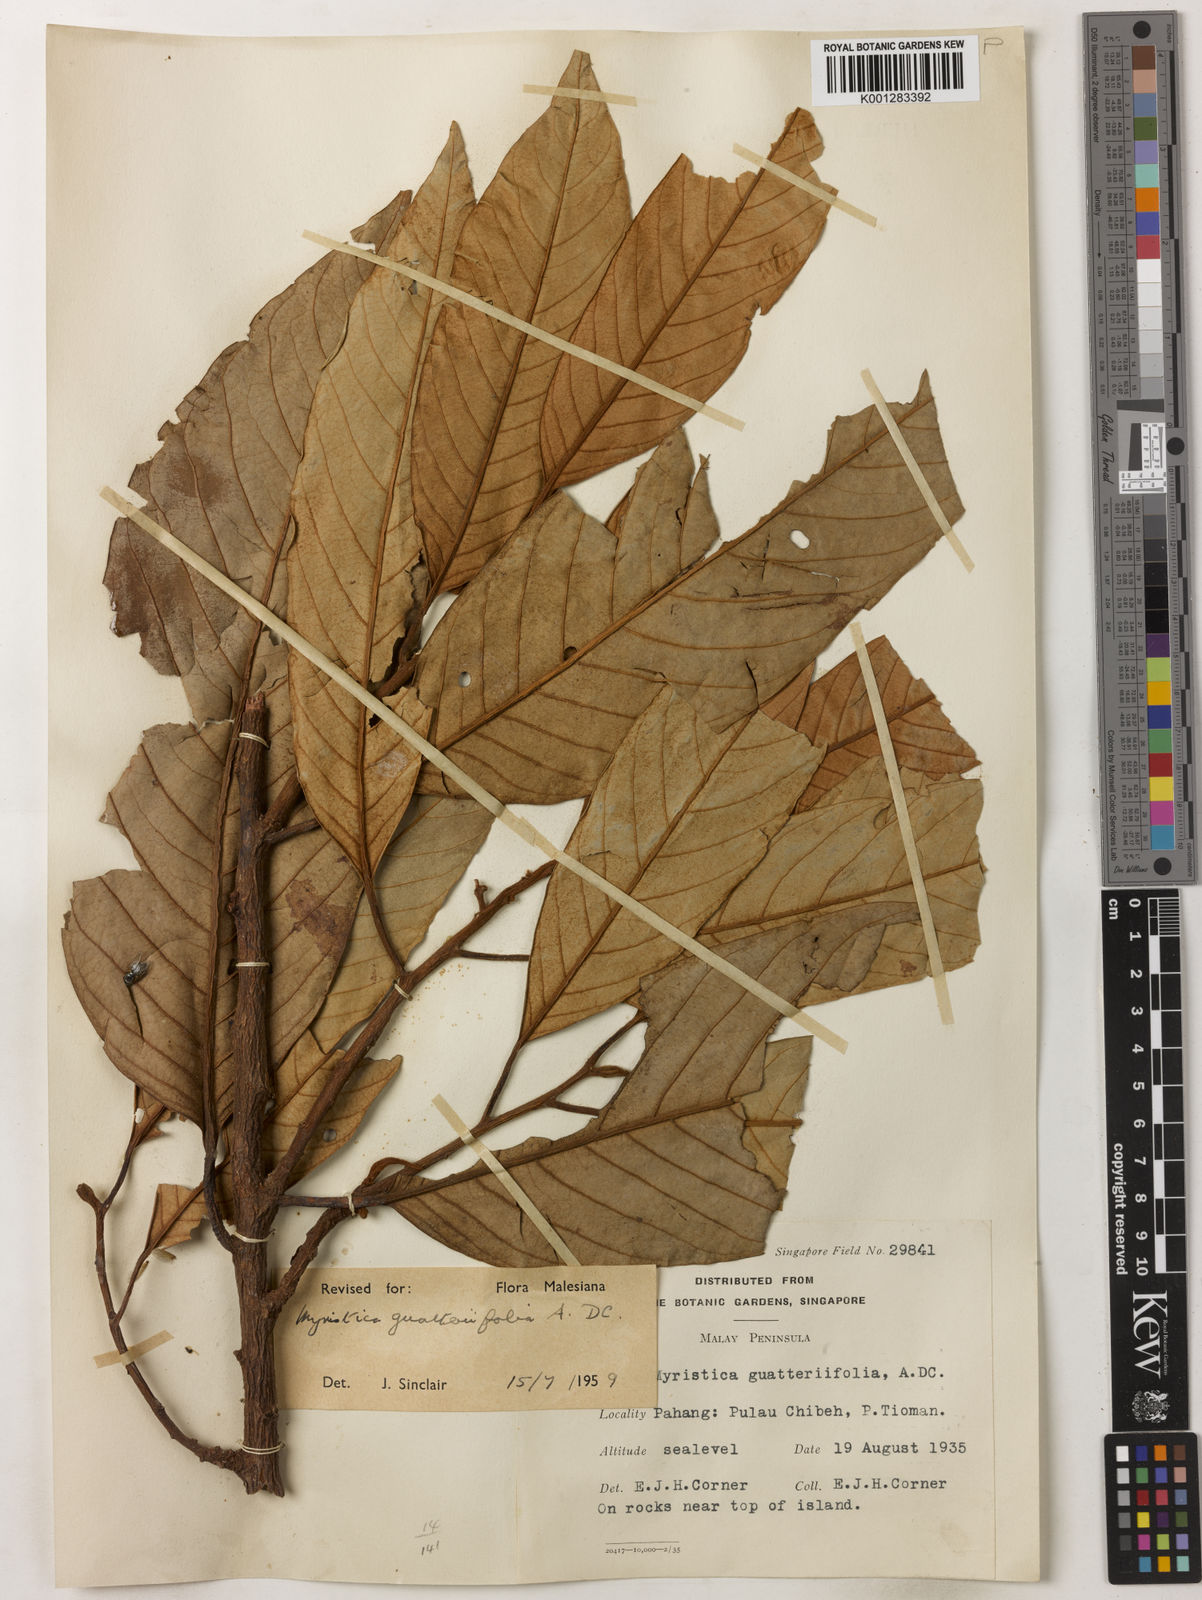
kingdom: Plantae
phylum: Tracheophyta
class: Magnoliopsida
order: Magnoliales
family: Myristicaceae
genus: Myristica
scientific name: Myristica
